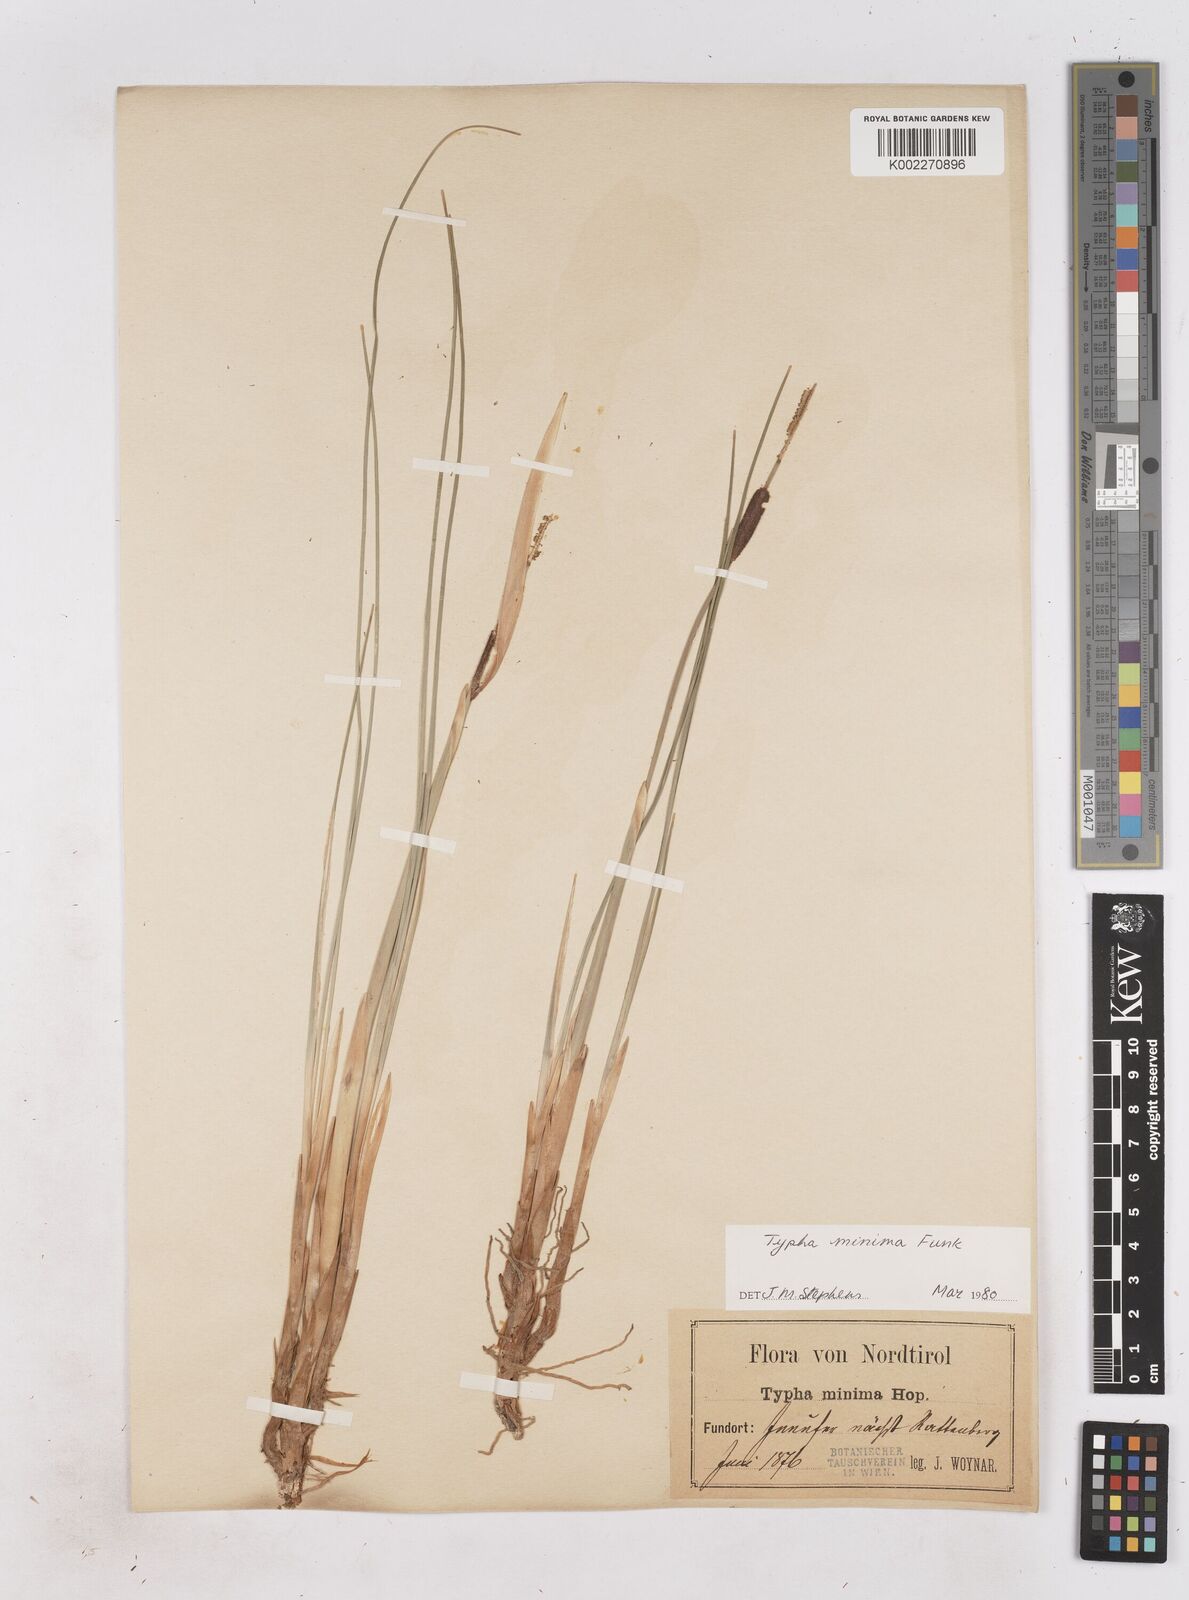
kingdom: Plantae
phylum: Tracheophyta
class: Liliopsida
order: Poales
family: Typhaceae
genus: Typha
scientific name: Typha minima
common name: Dwarf bulrush
